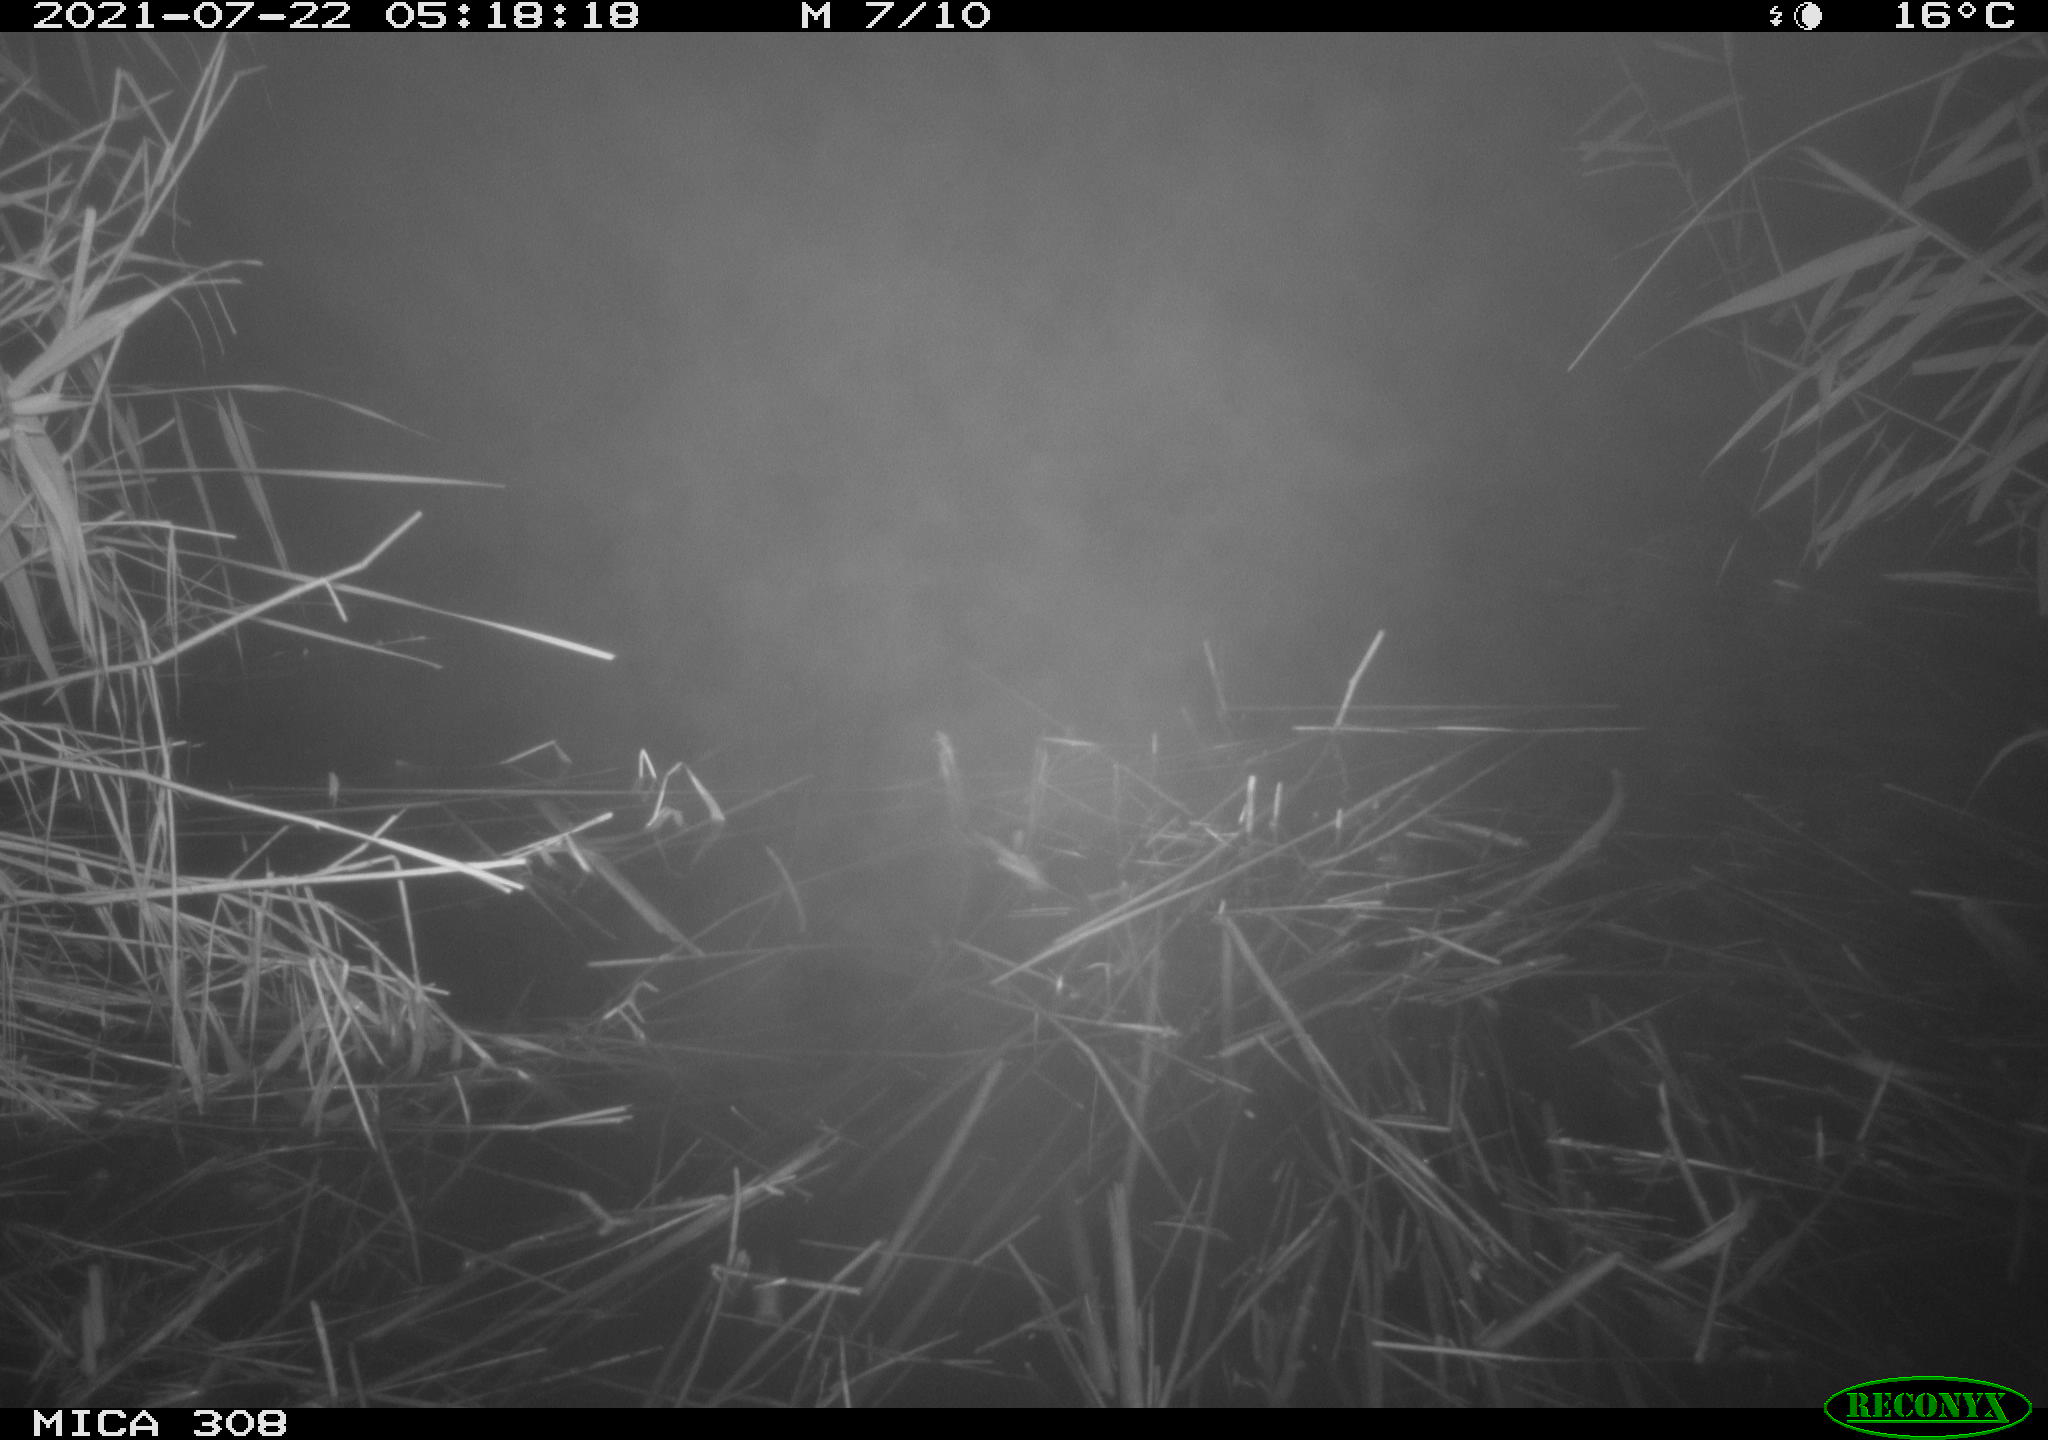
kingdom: Animalia
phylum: Chordata
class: Aves
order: Anseriformes
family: Anatidae
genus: Anas
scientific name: Anas platyrhynchos
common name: Mallard
